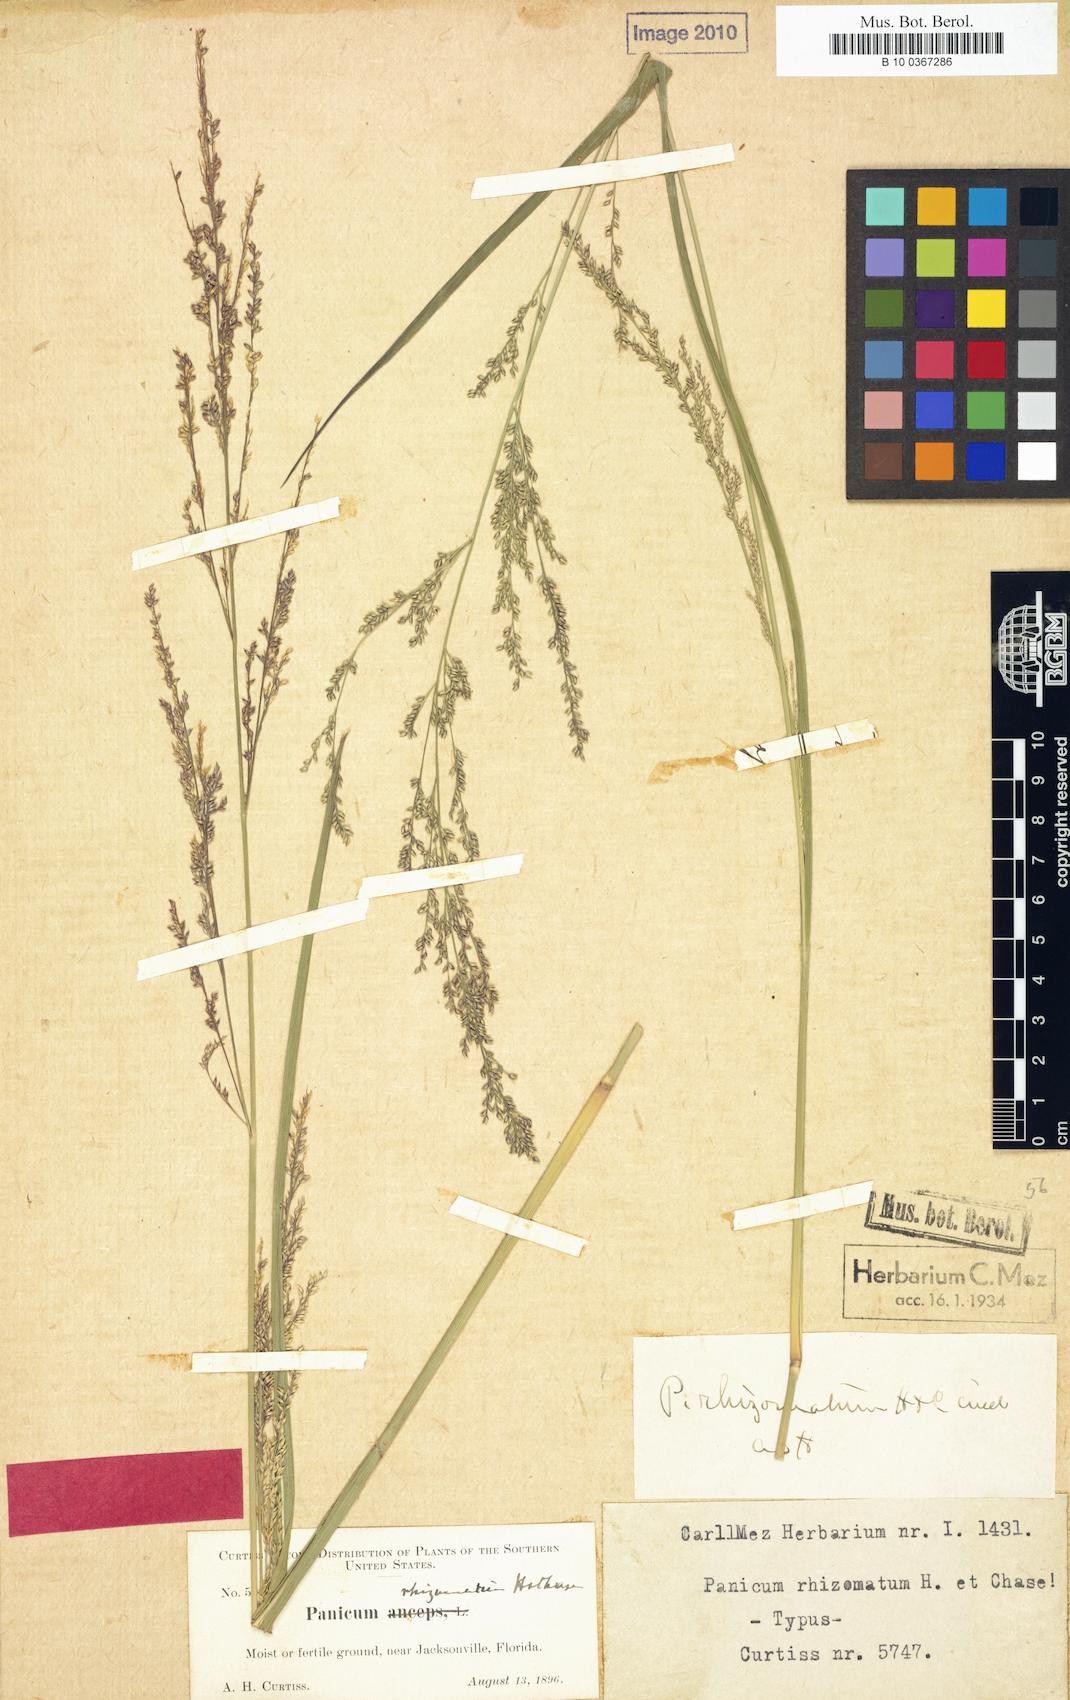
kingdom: Plantae
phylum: Tracheophyta
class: Liliopsida
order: Poales
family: Poaceae
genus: Coleataenia
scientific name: Coleataenia anceps
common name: Beaked panic grass
